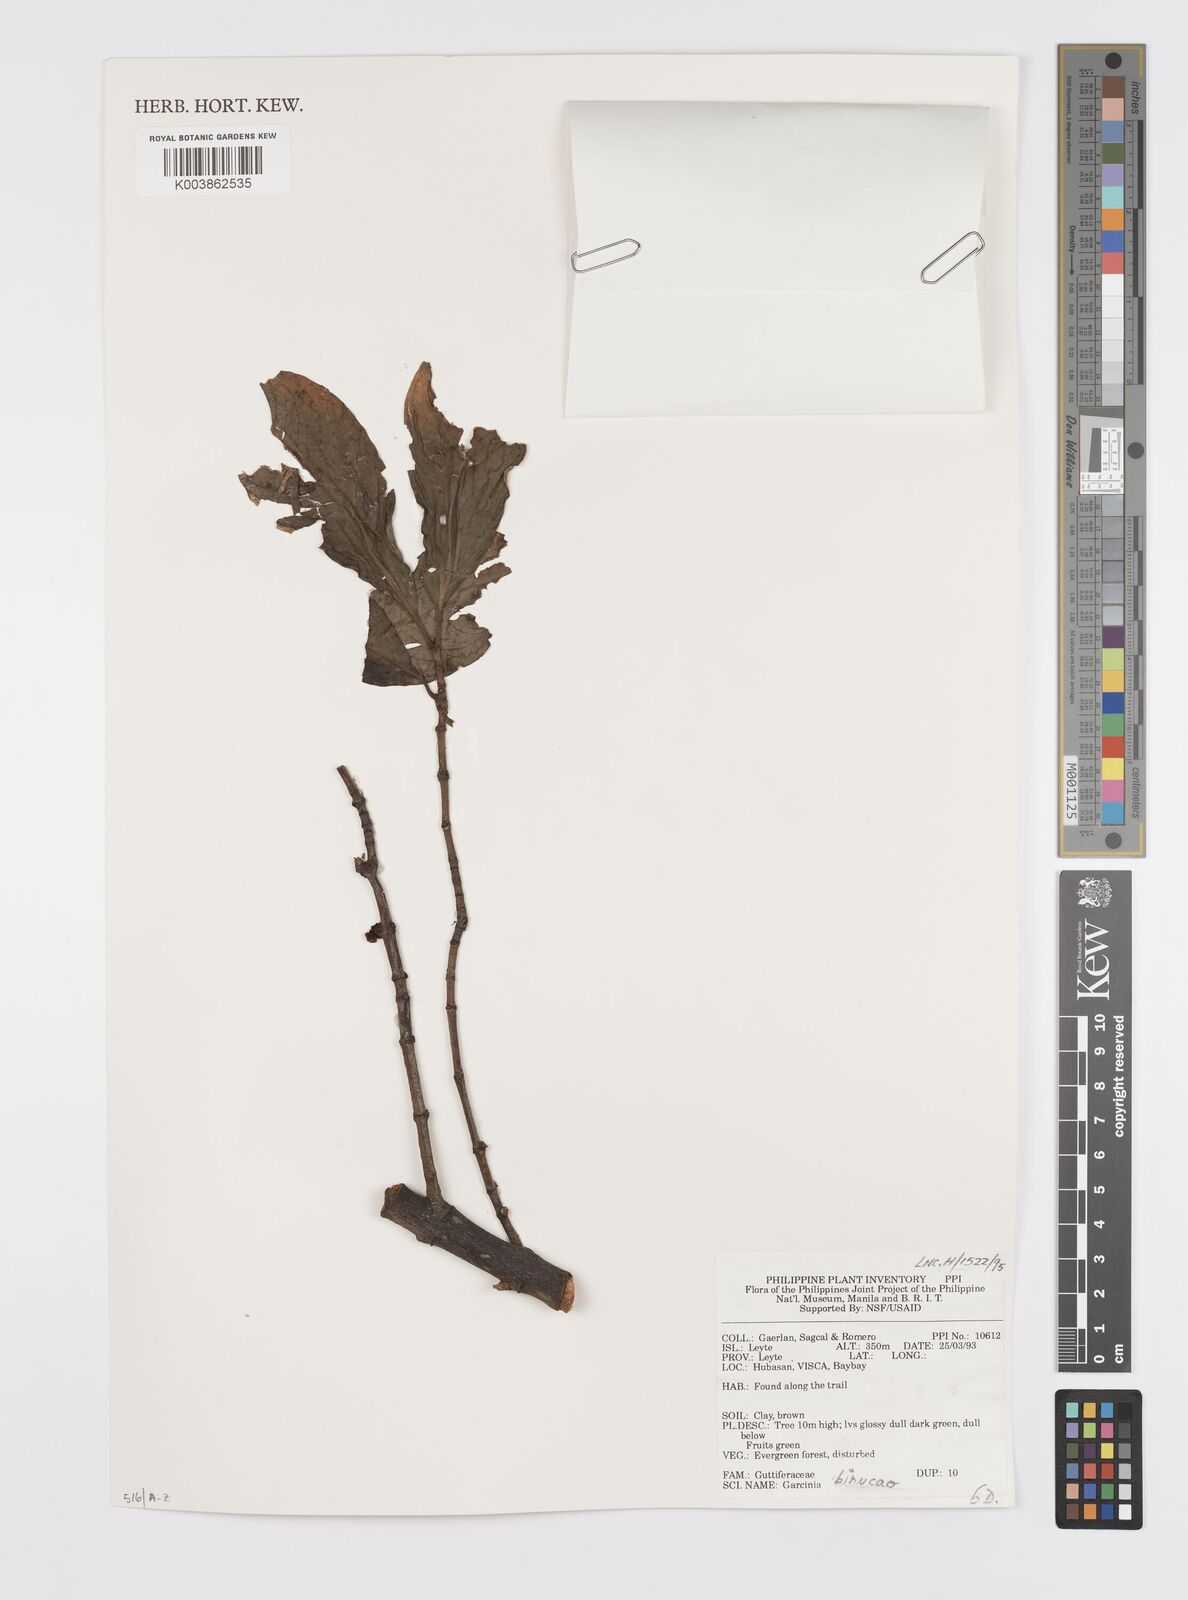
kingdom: Plantae
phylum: Tracheophyta
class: Magnoliopsida
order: Malpighiales
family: Clusiaceae
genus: Garcinia
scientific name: Garcinia binucao
